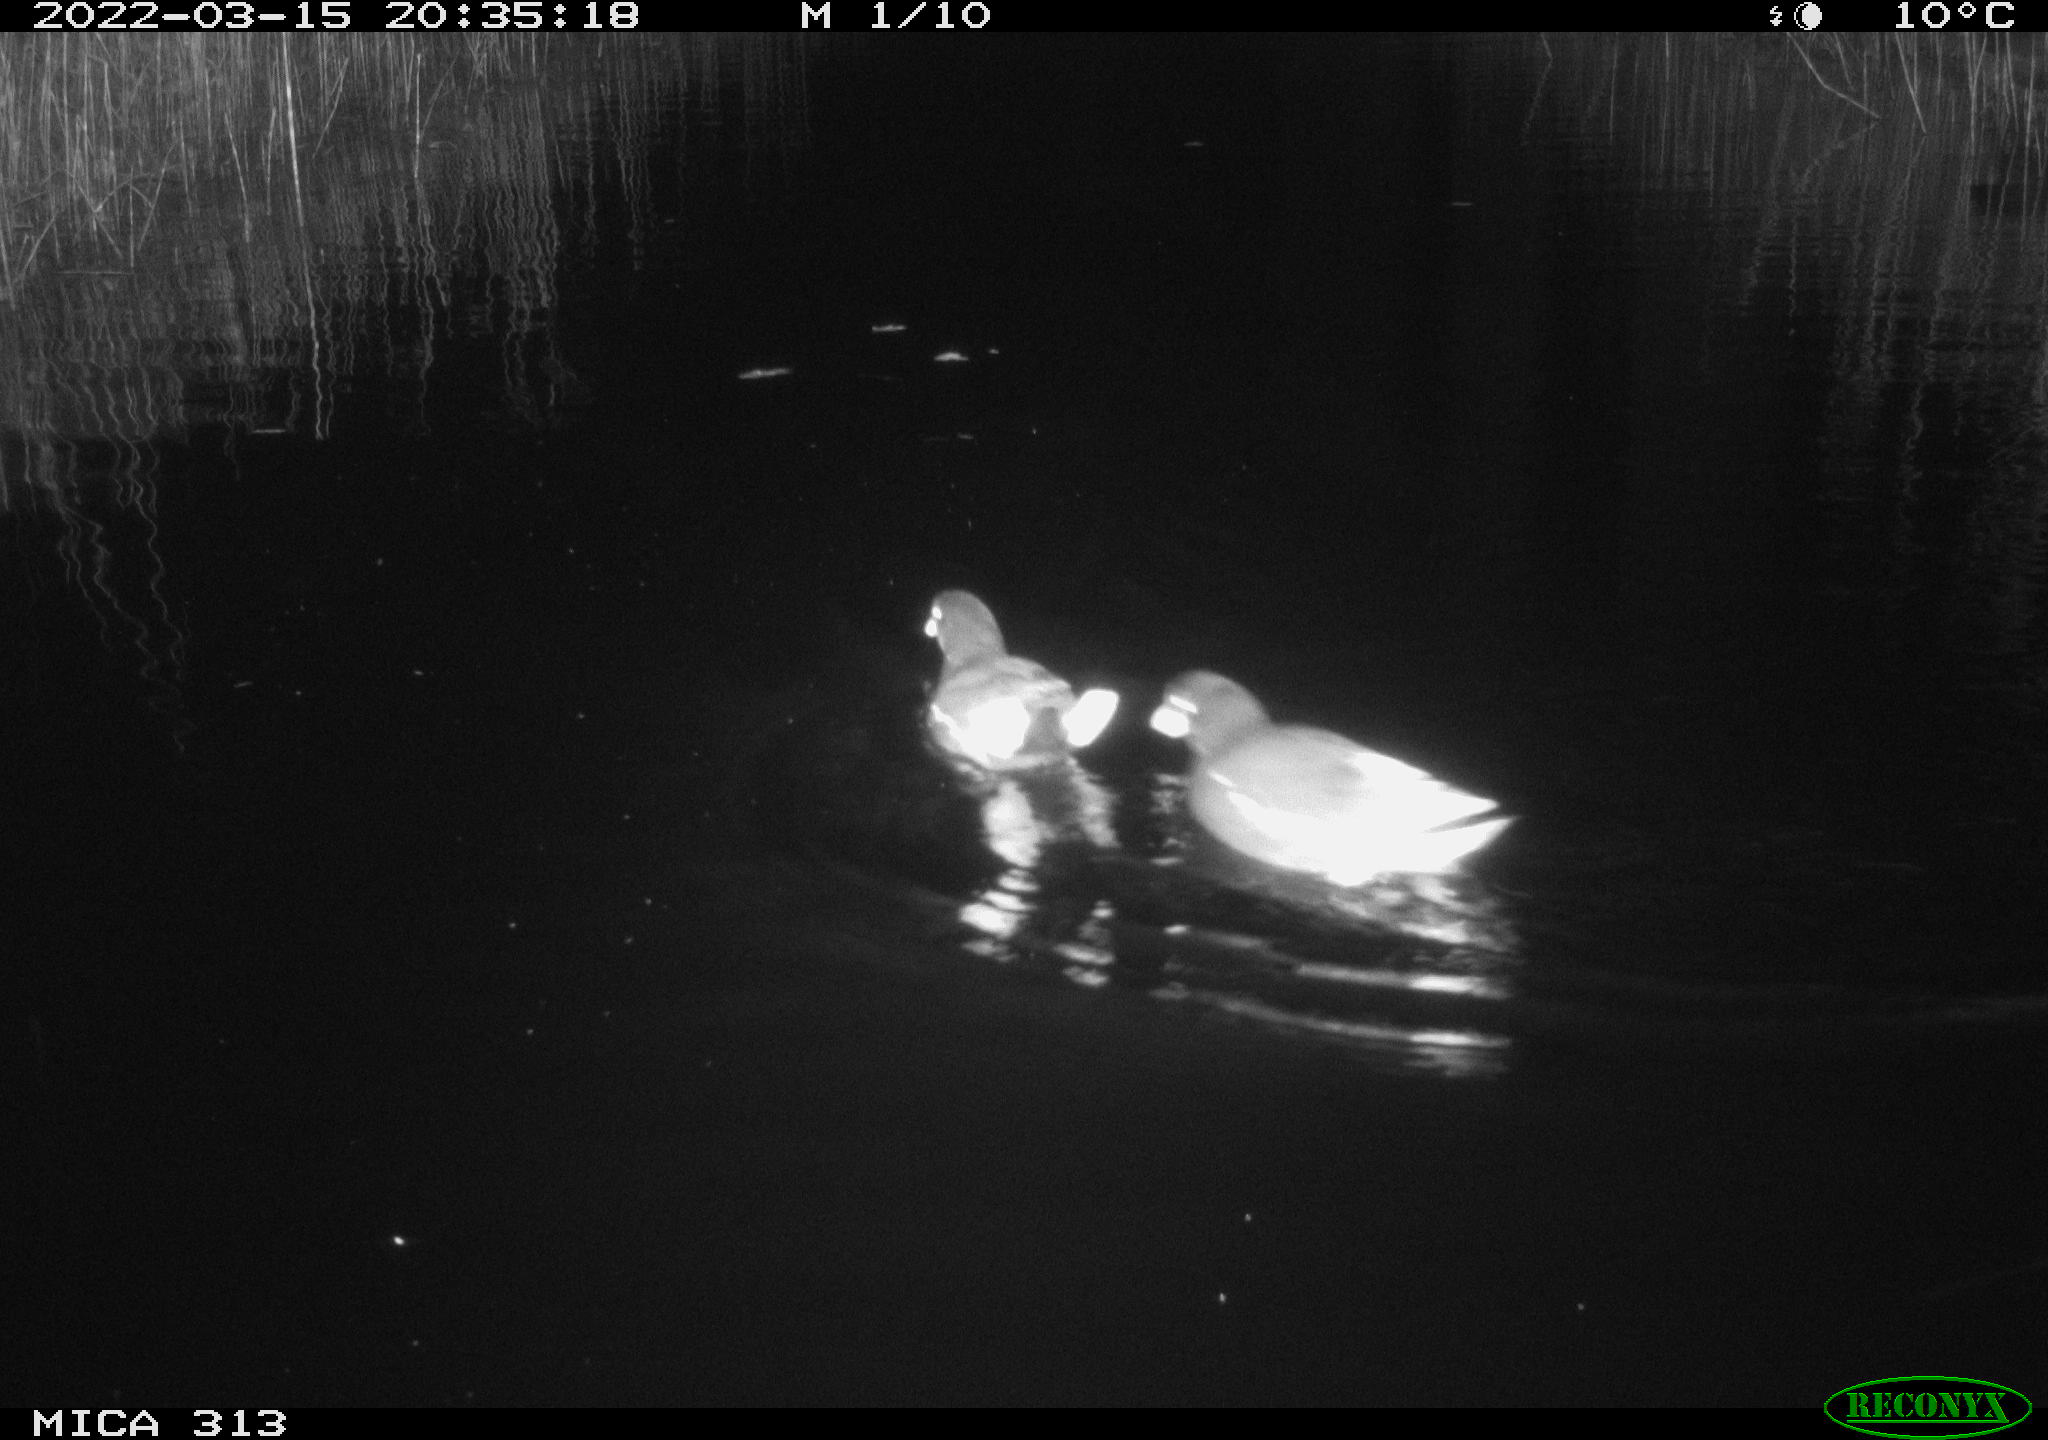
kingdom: Animalia
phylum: Chordata
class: Aves
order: Gruiformes
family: Rallidae
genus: Gallinula
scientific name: Gallinula chloropus
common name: Common moorhen
